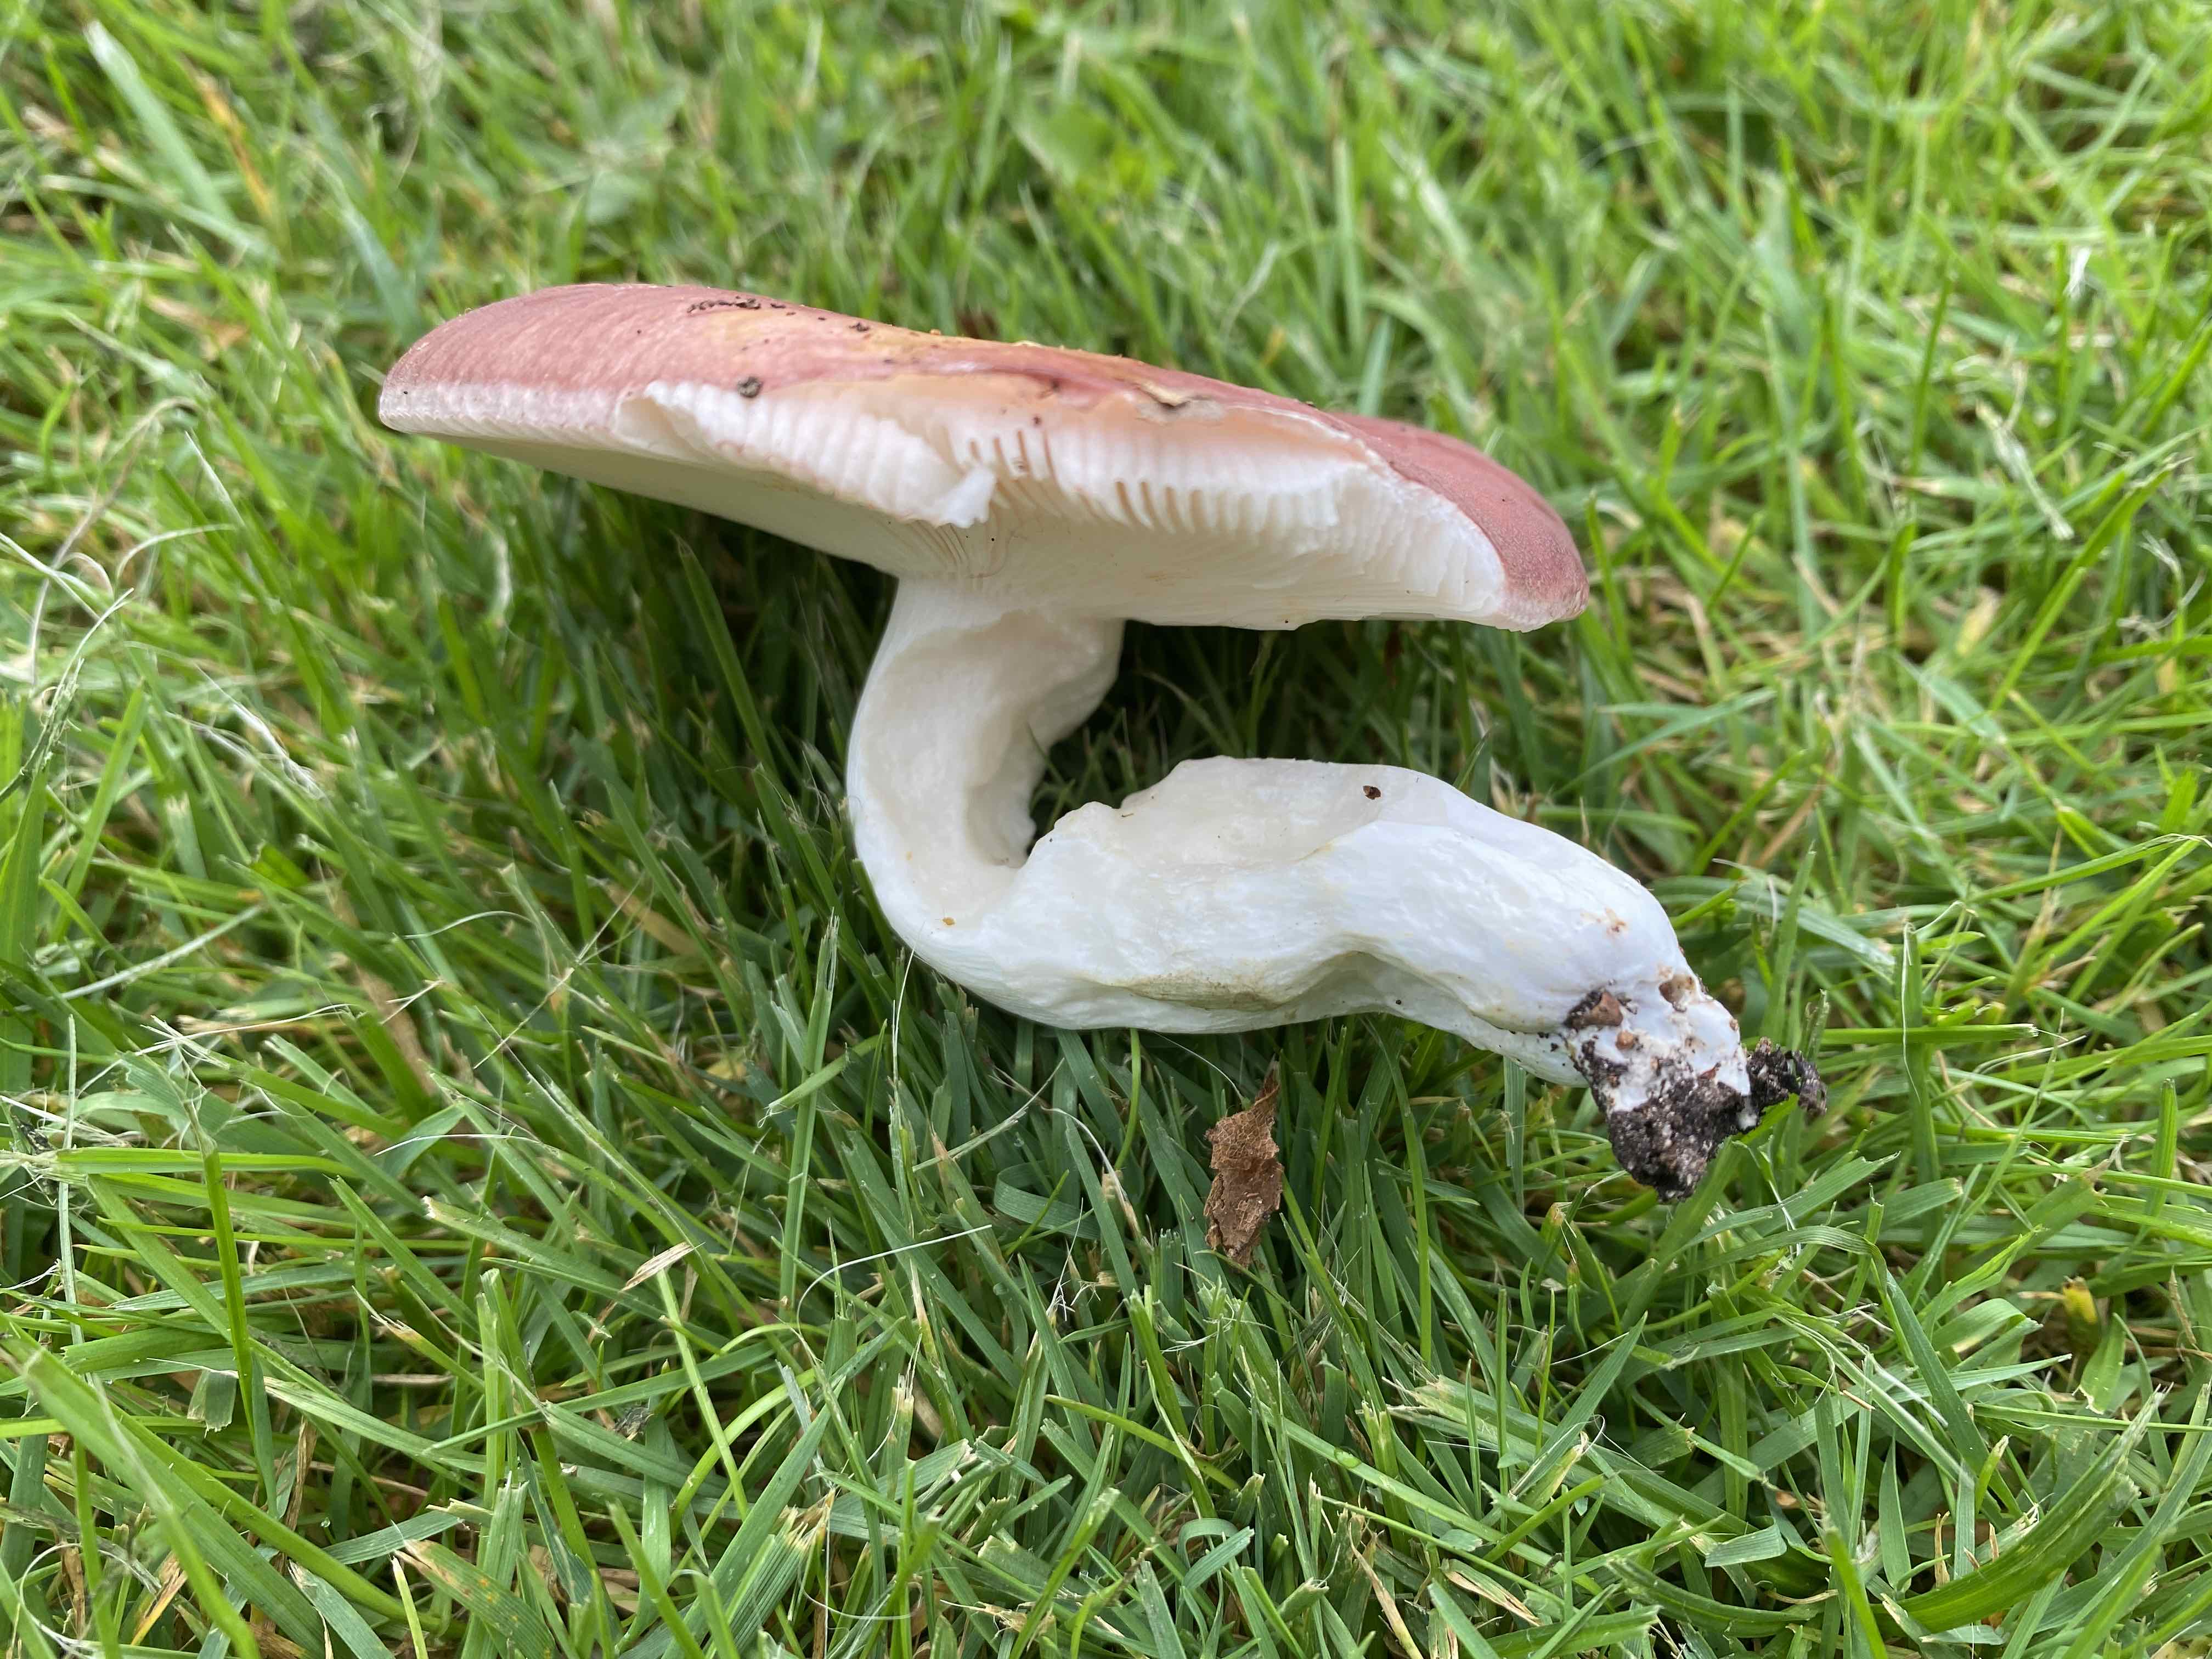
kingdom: Fungi
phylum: Basidiomycota
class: Agaricomycetes
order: Russulales
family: Russulaceae
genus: Russula
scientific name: Russula vesca
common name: spiselig skørhat
